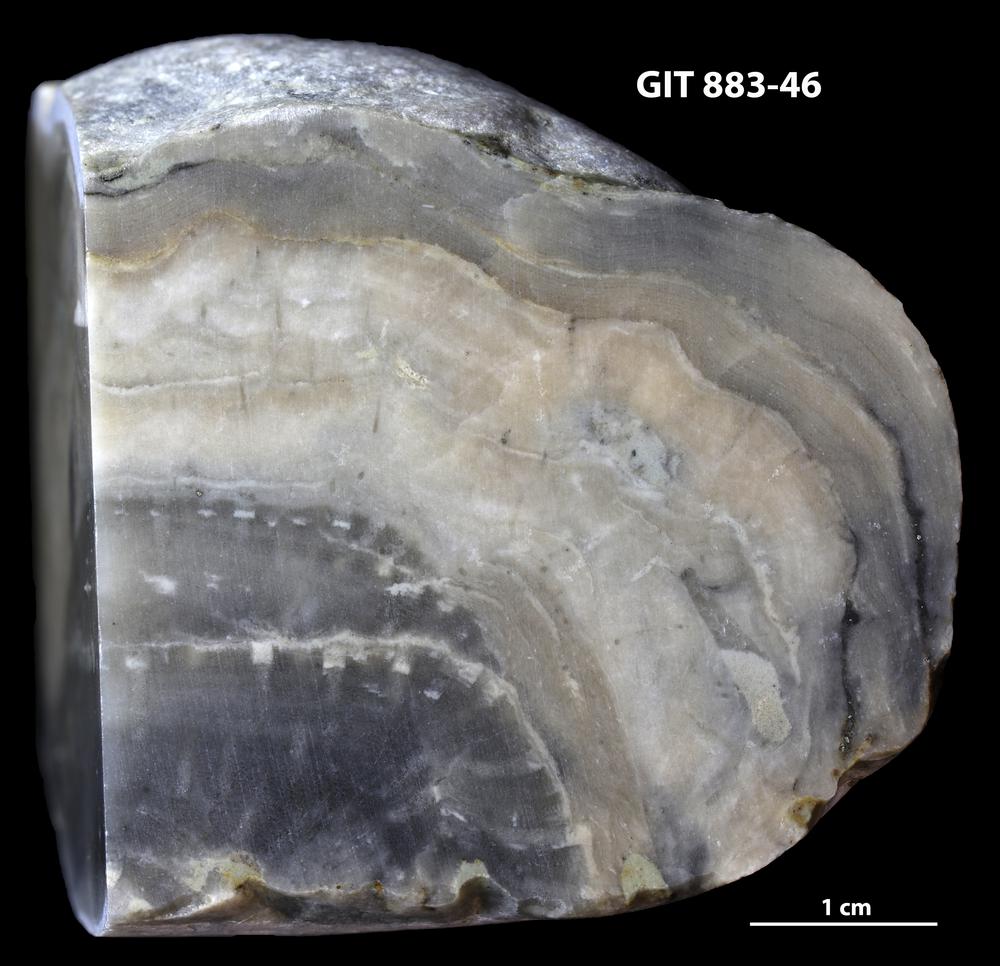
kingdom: Animalia
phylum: Porifera
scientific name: Porifera
